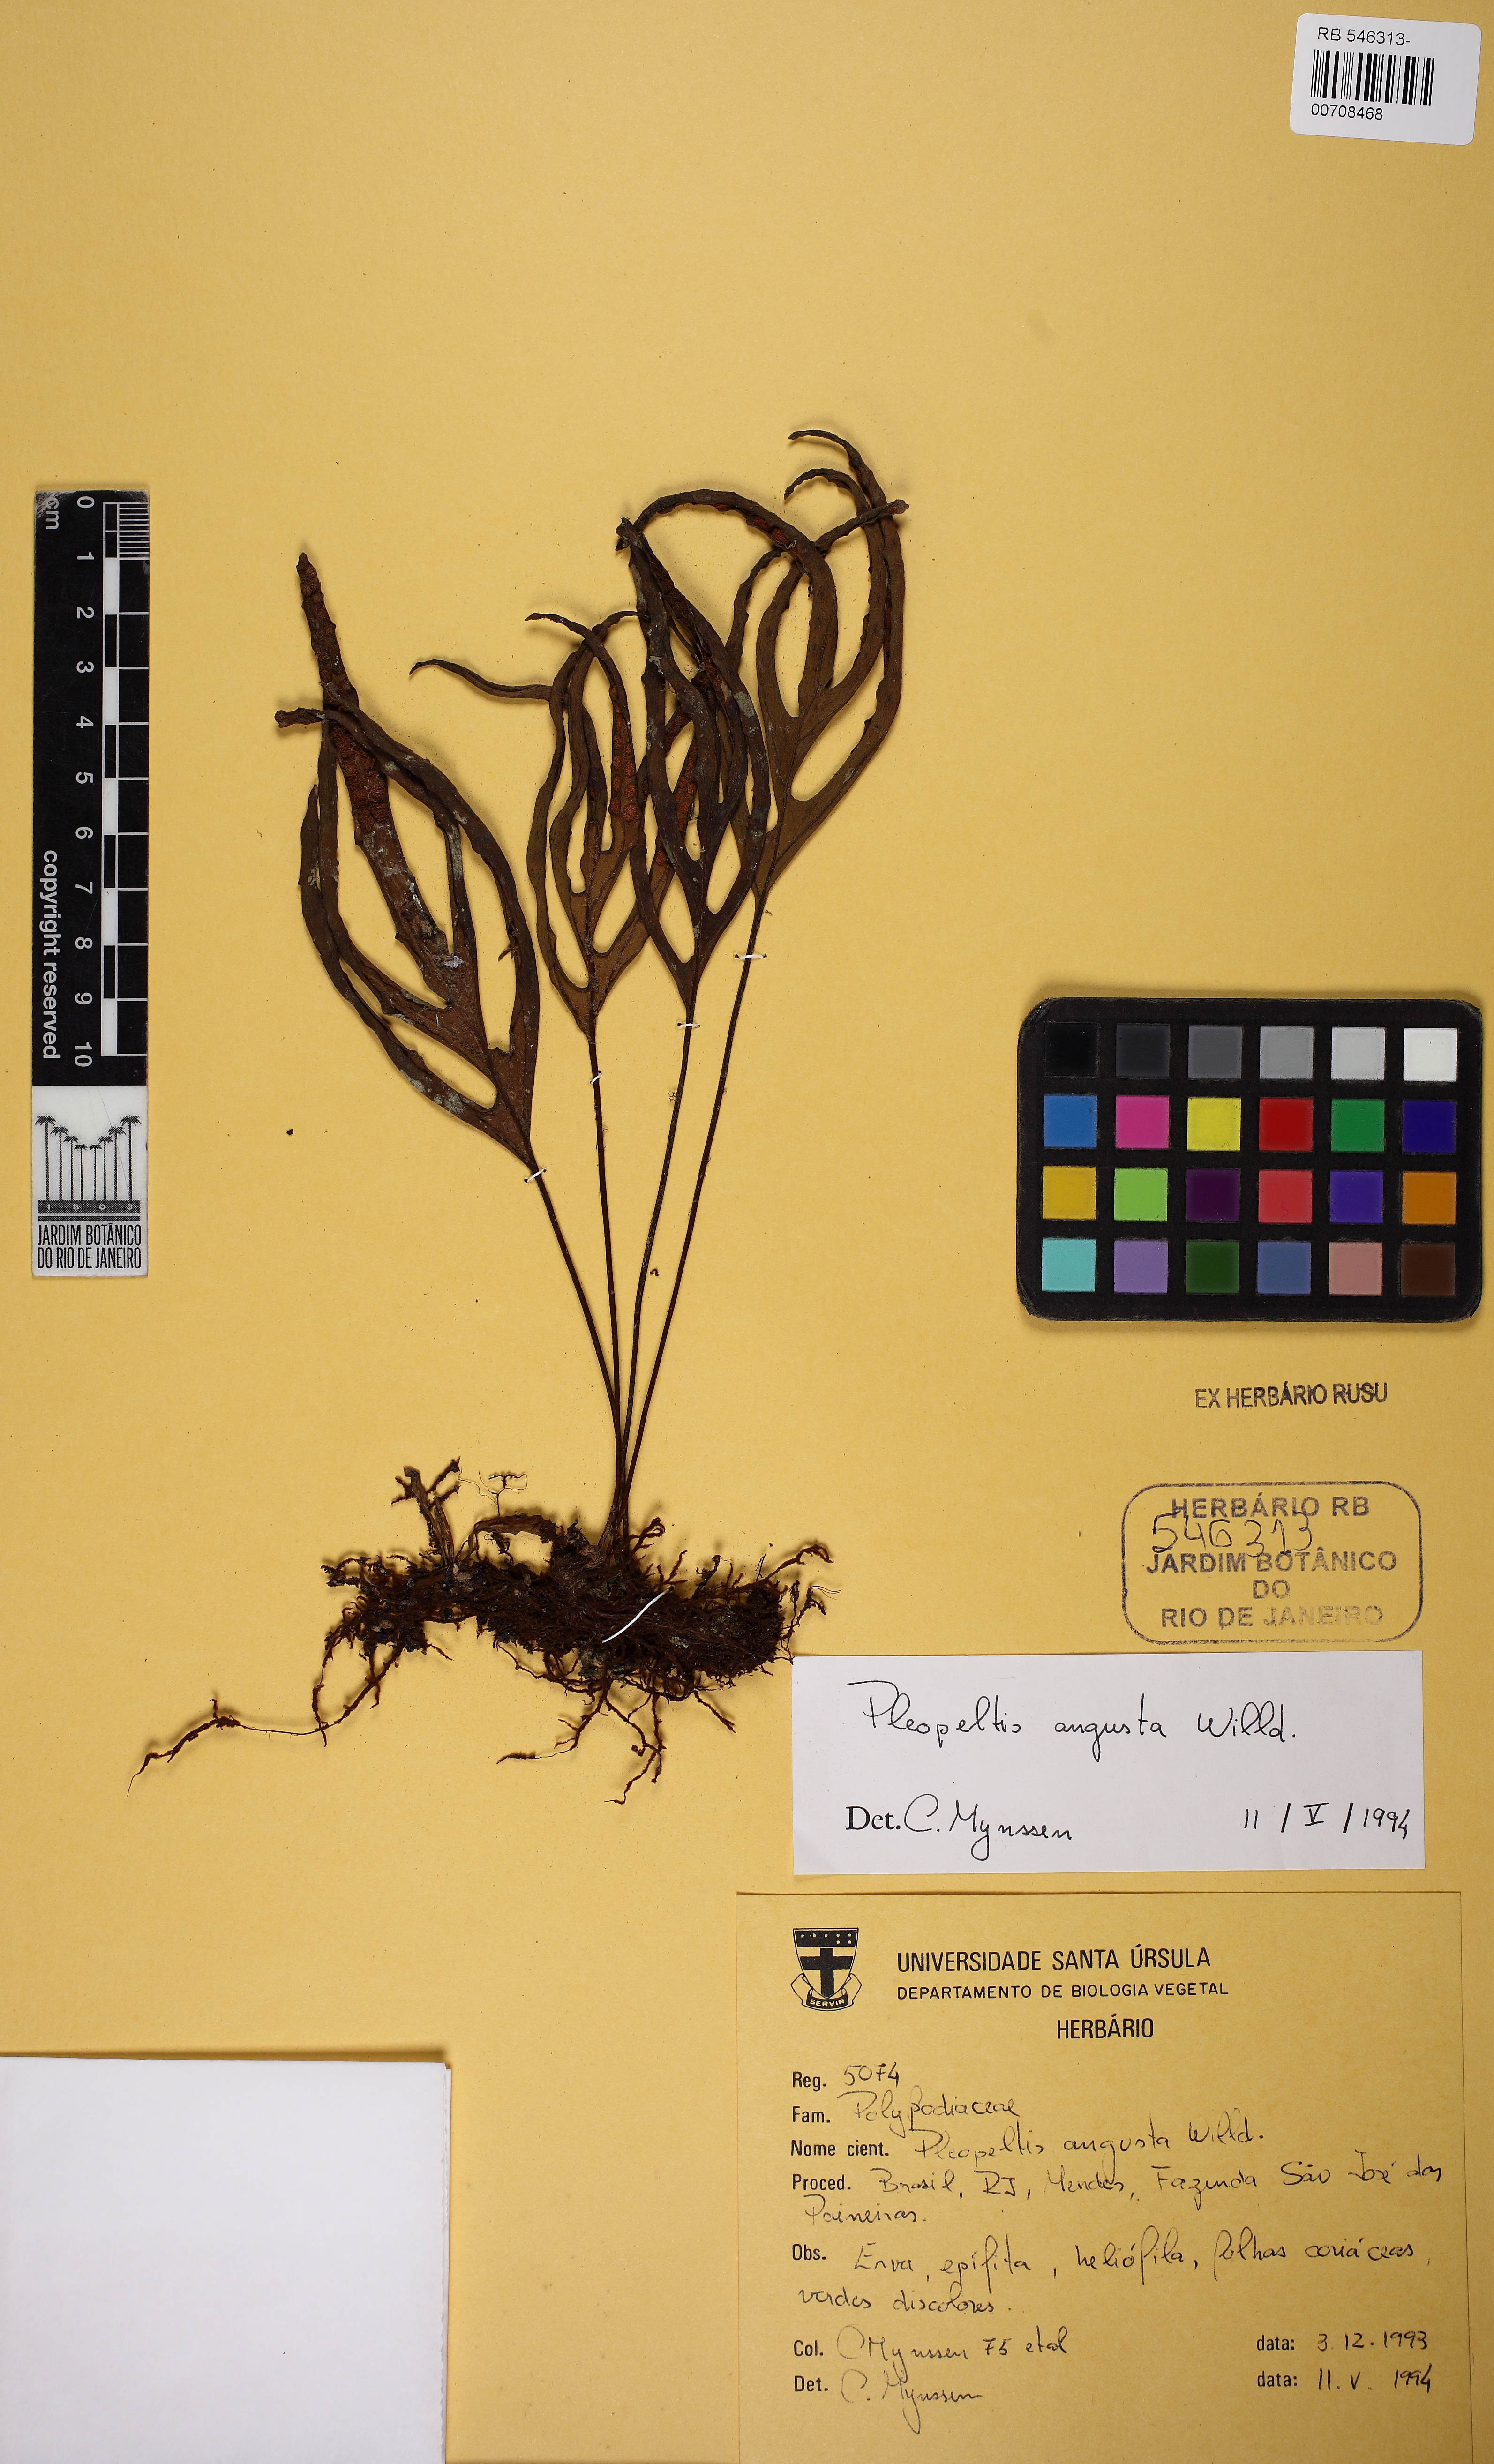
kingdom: Plantae
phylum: Tracheophyta
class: Polypodiopsida
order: Polypodiales
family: Polypodiaceae
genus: Pleopeltis
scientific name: Pleopeltis pleopeltifolia
